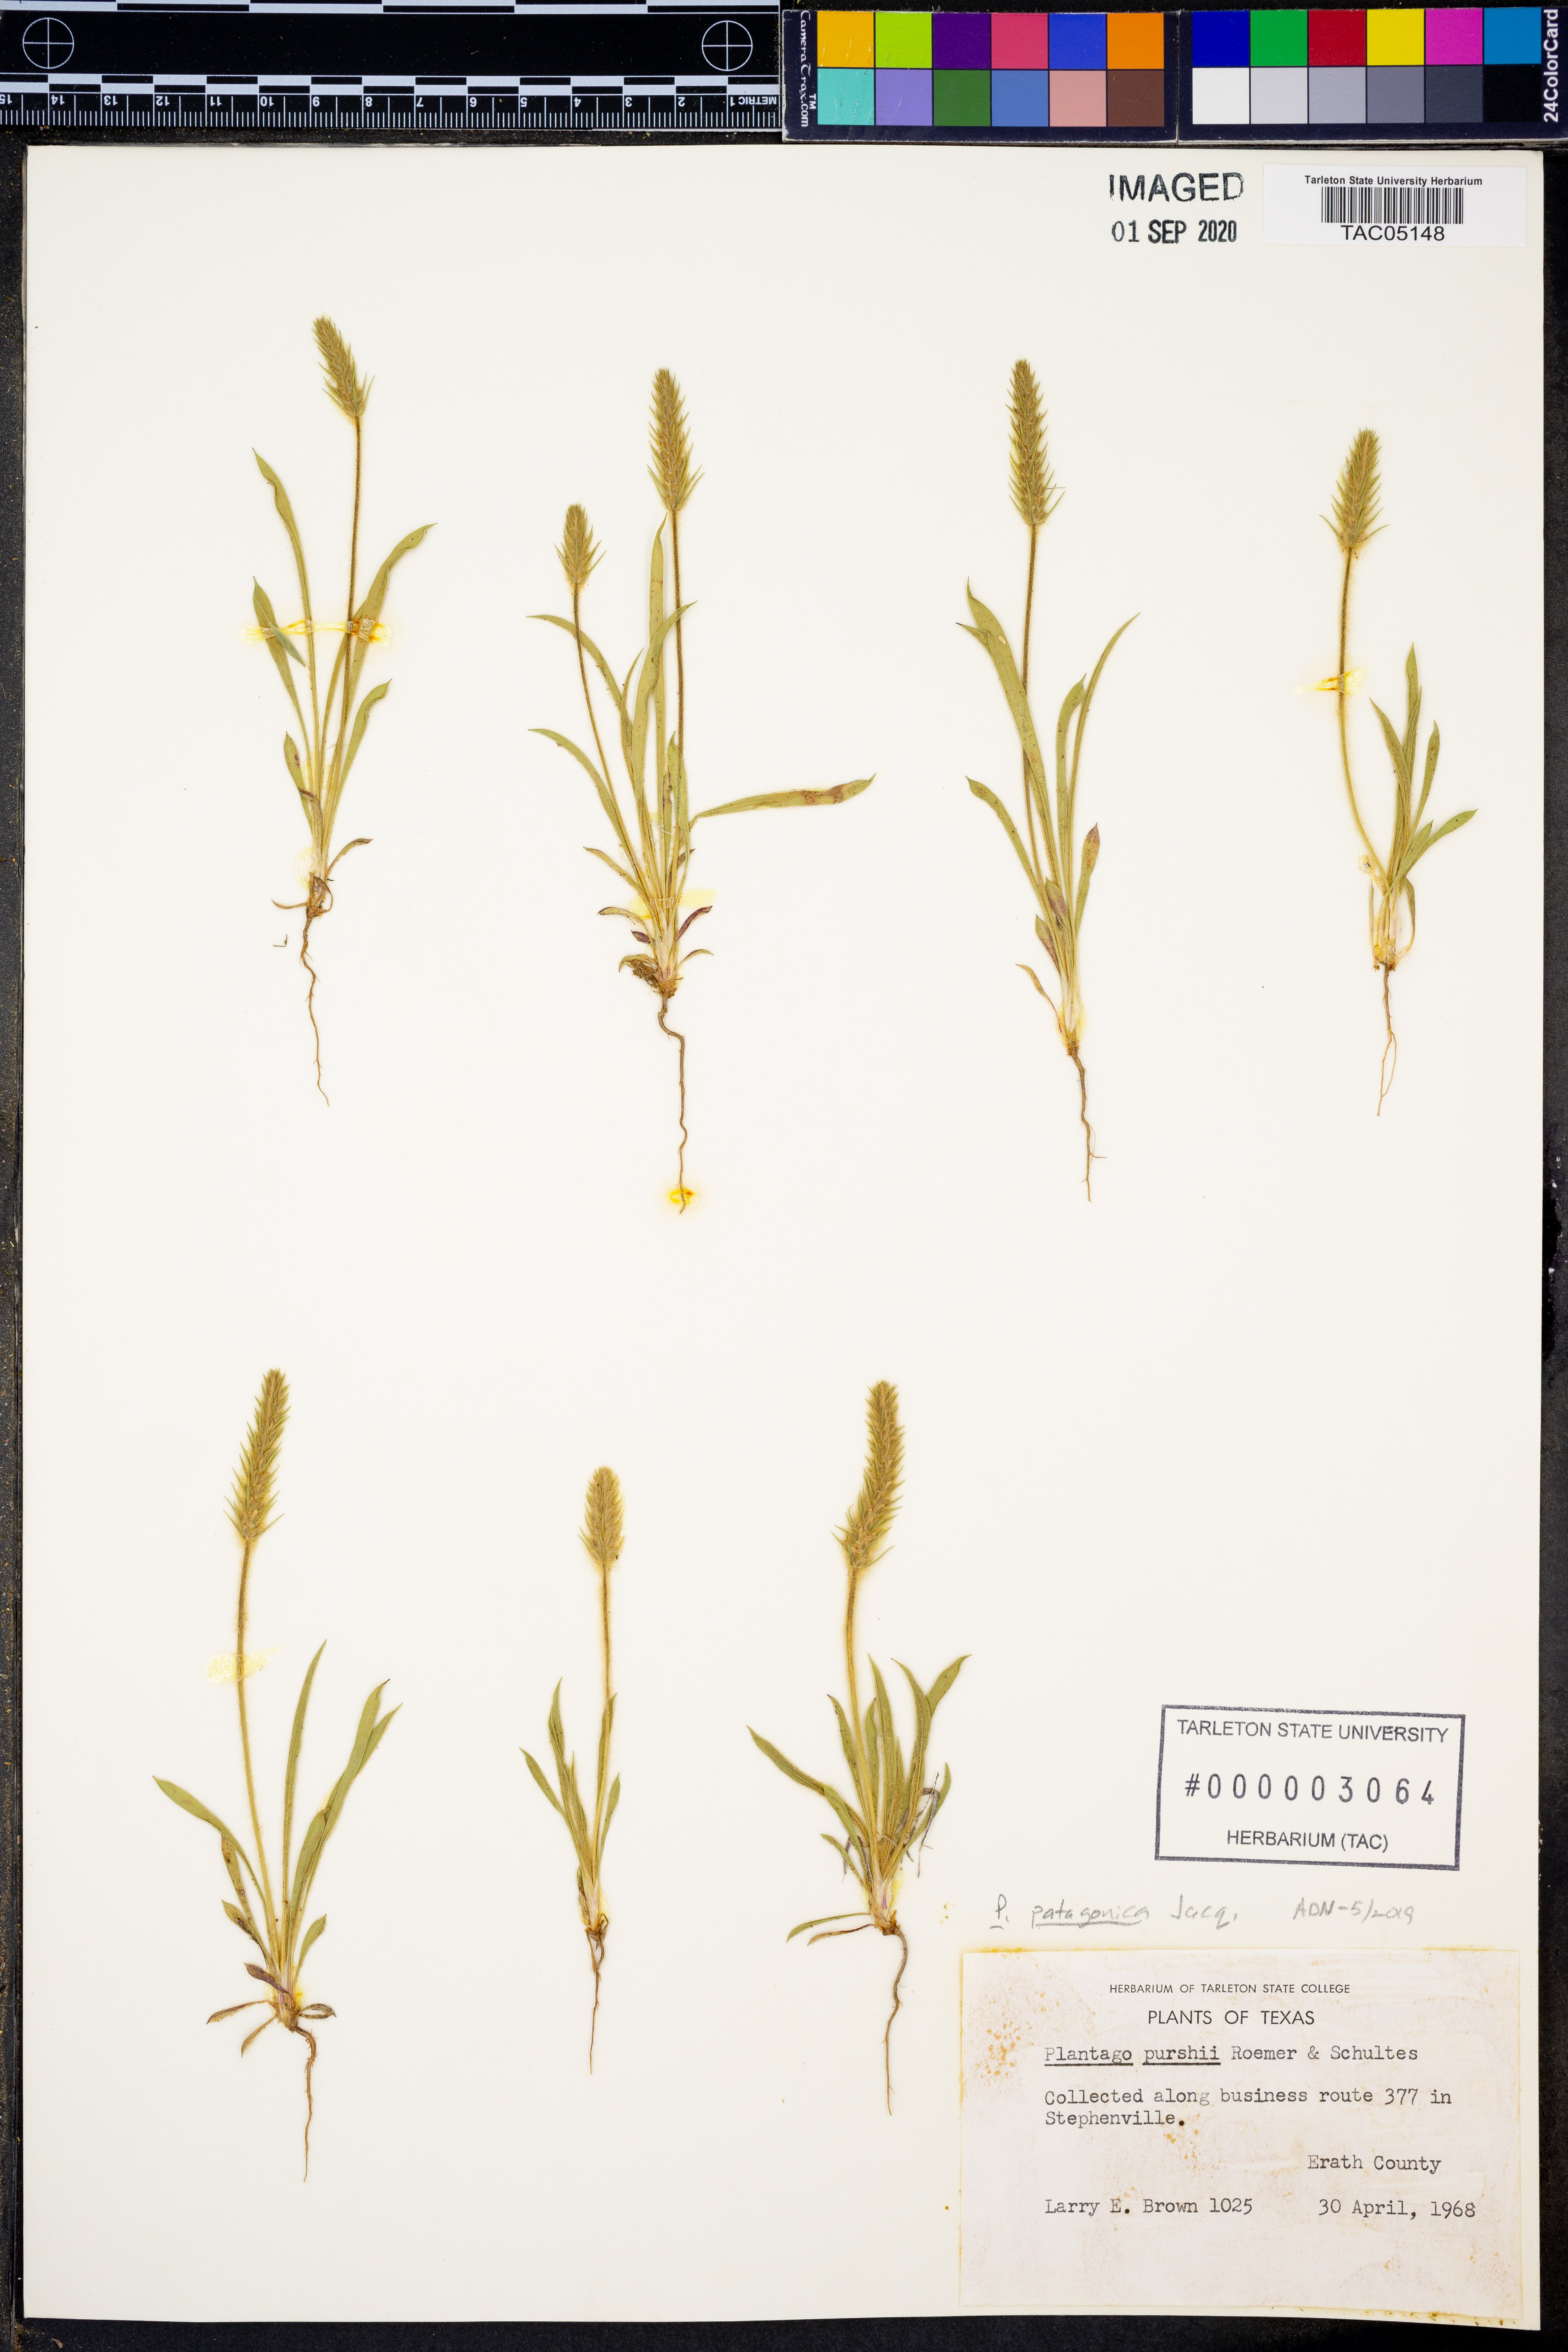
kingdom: Plantae
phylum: Tracheophyta
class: Magnoliopsida
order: Lamiales
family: Plantaginaceae
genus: Plantago
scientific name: Plantago patagonica
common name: Patagonia indian-wheat
